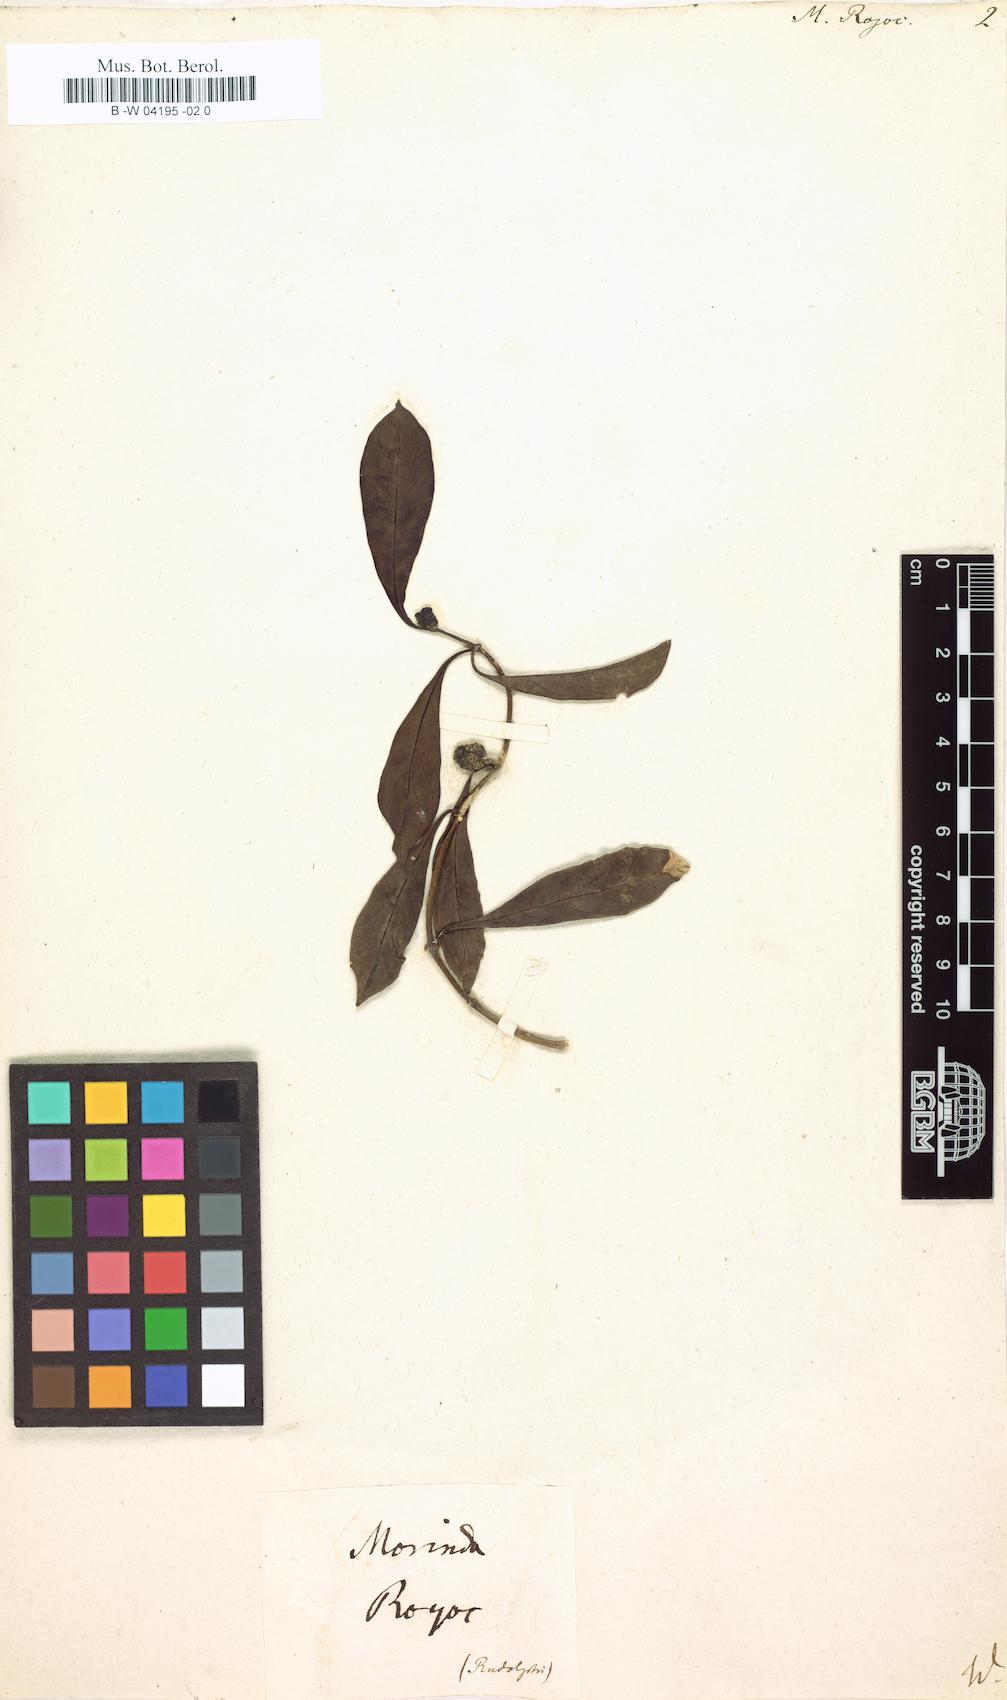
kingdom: Plantae
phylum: Tracheophyta
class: Magnoliopsida
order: Gentianales
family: Rubiaceae
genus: Morinda
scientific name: Morinda royoc
